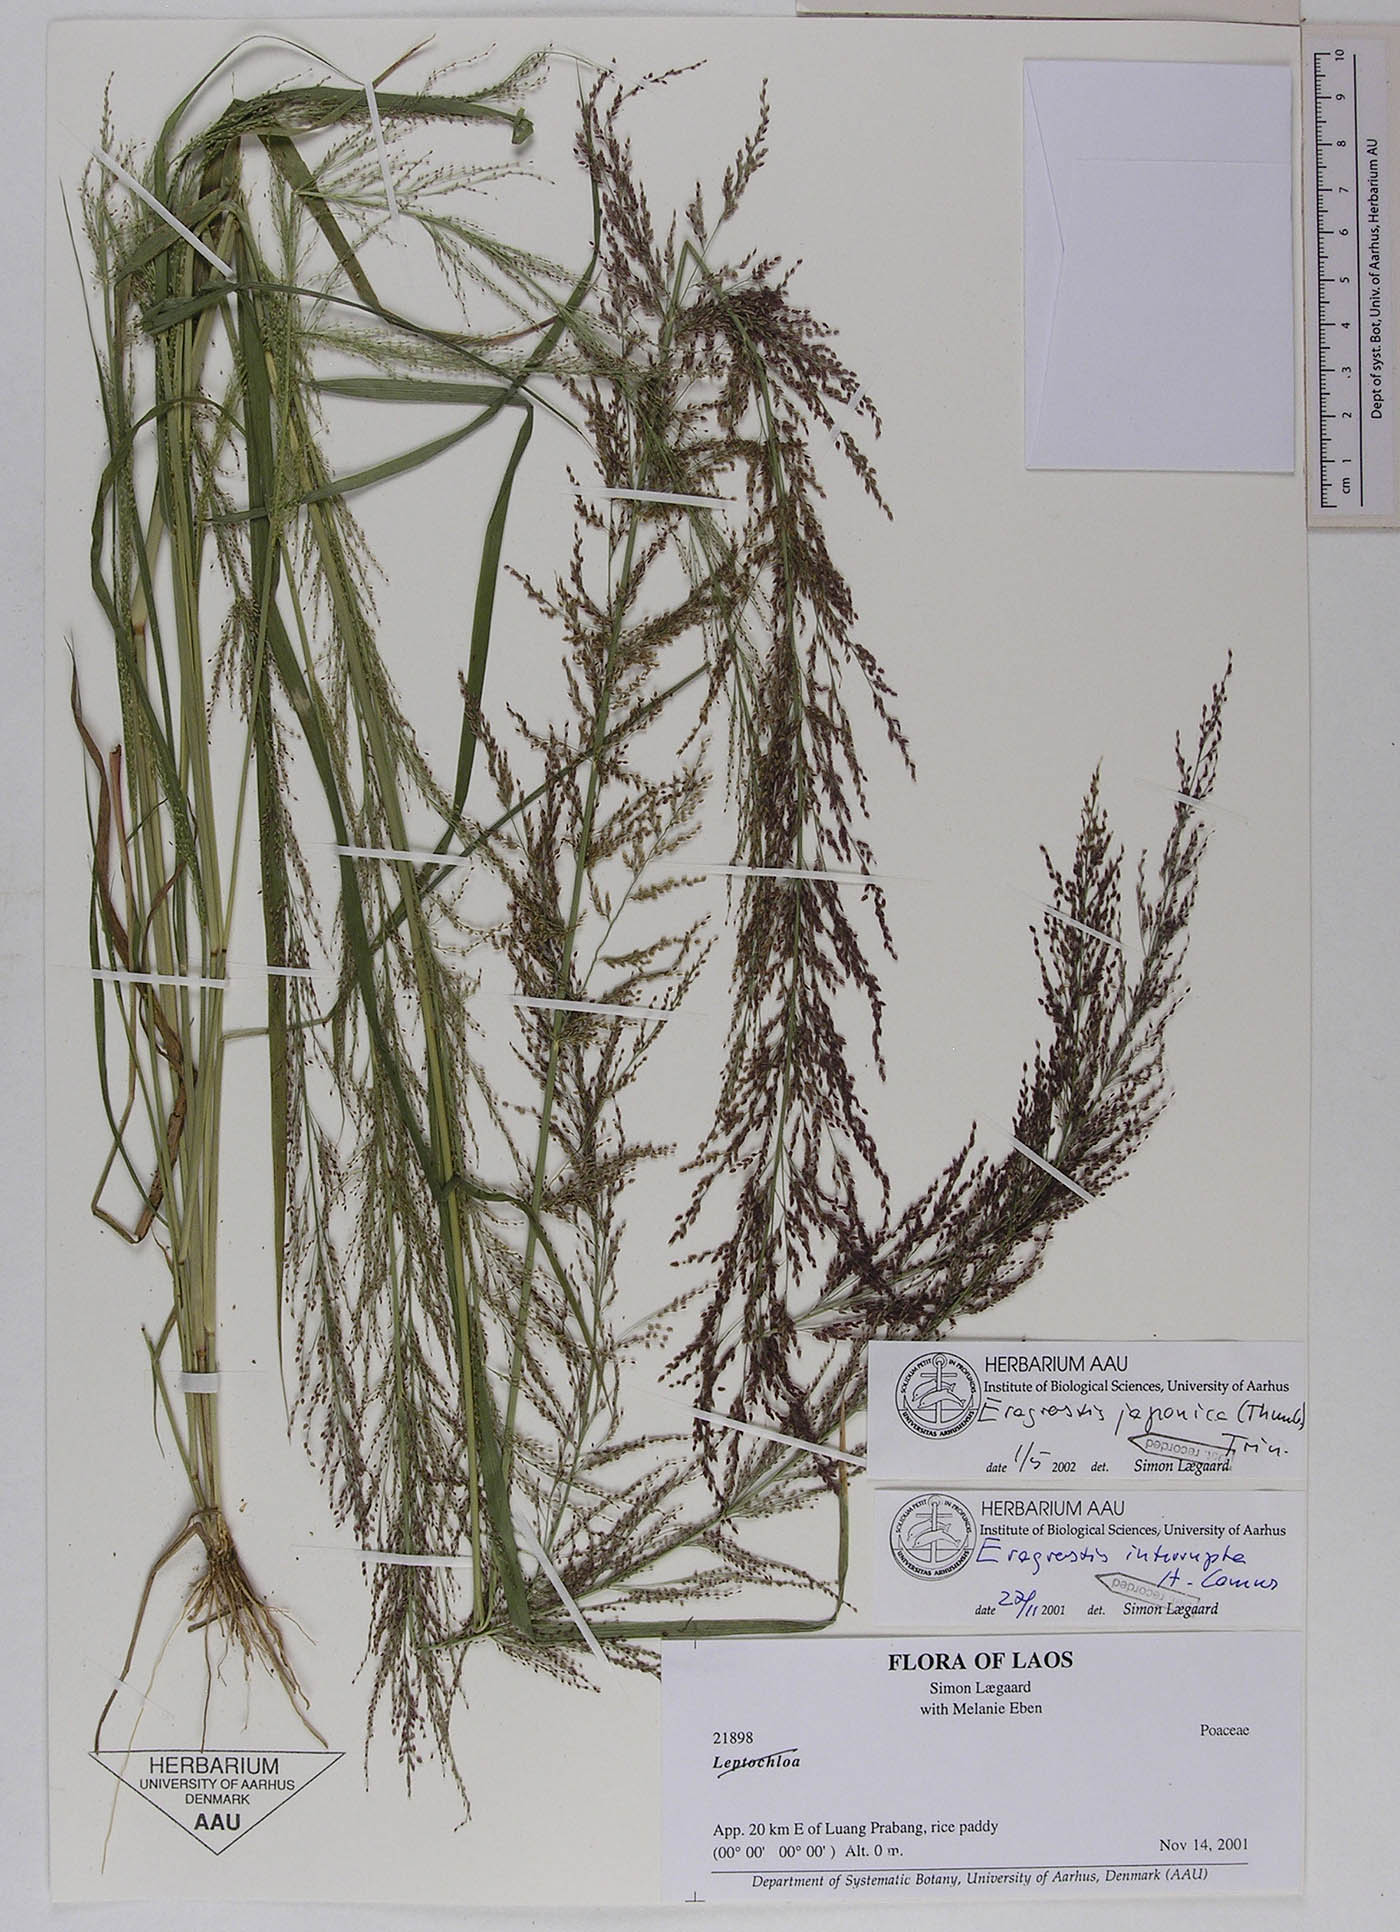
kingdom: Plantae
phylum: Tracheophyta
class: Liliopsida
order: Poales
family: Poaceae
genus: Eragrostis
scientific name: Eragrostis japonica
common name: Pond lovegrass
